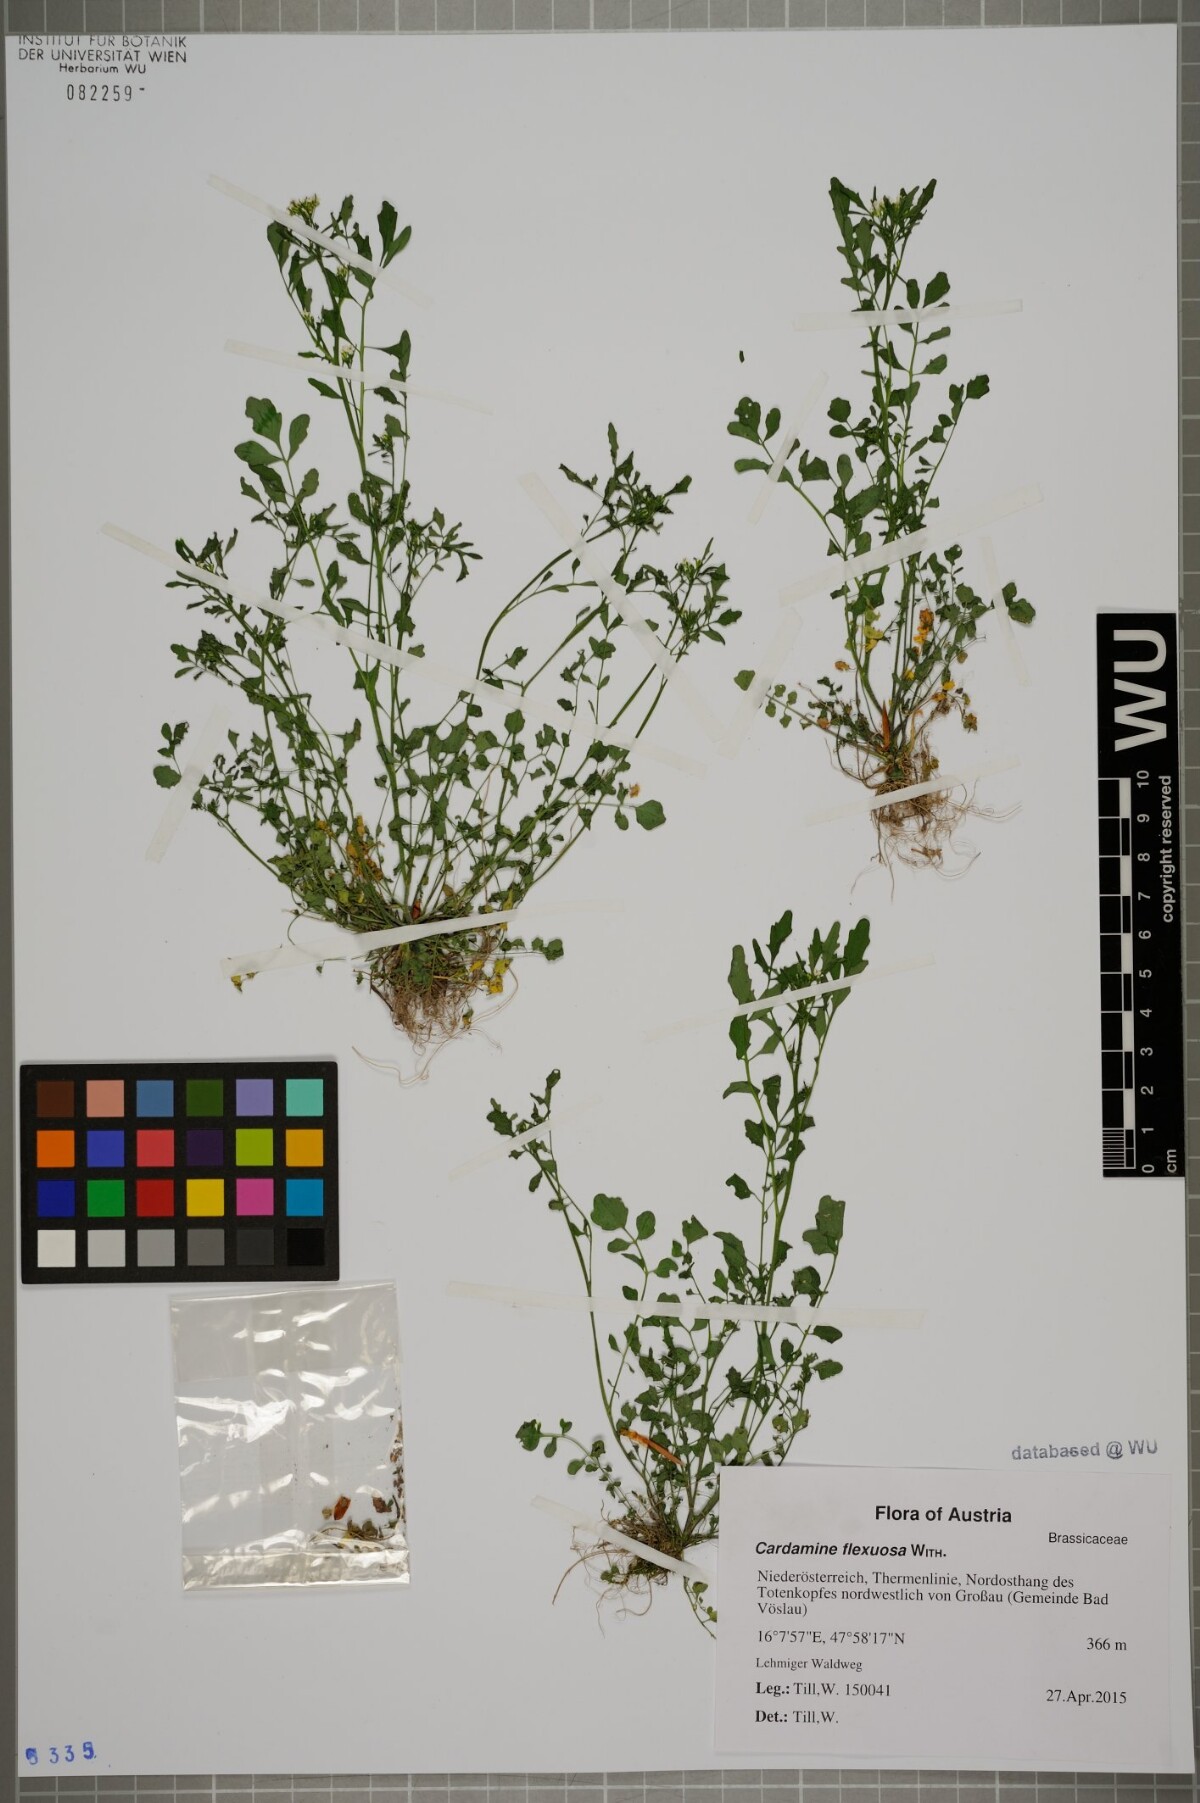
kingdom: Plantae
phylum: Tracheophyta
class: Magnoliopsida
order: Brassicales
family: Brassicaceae
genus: Cardamine
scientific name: Cardamine flexuosa
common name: Woodland bittercress
